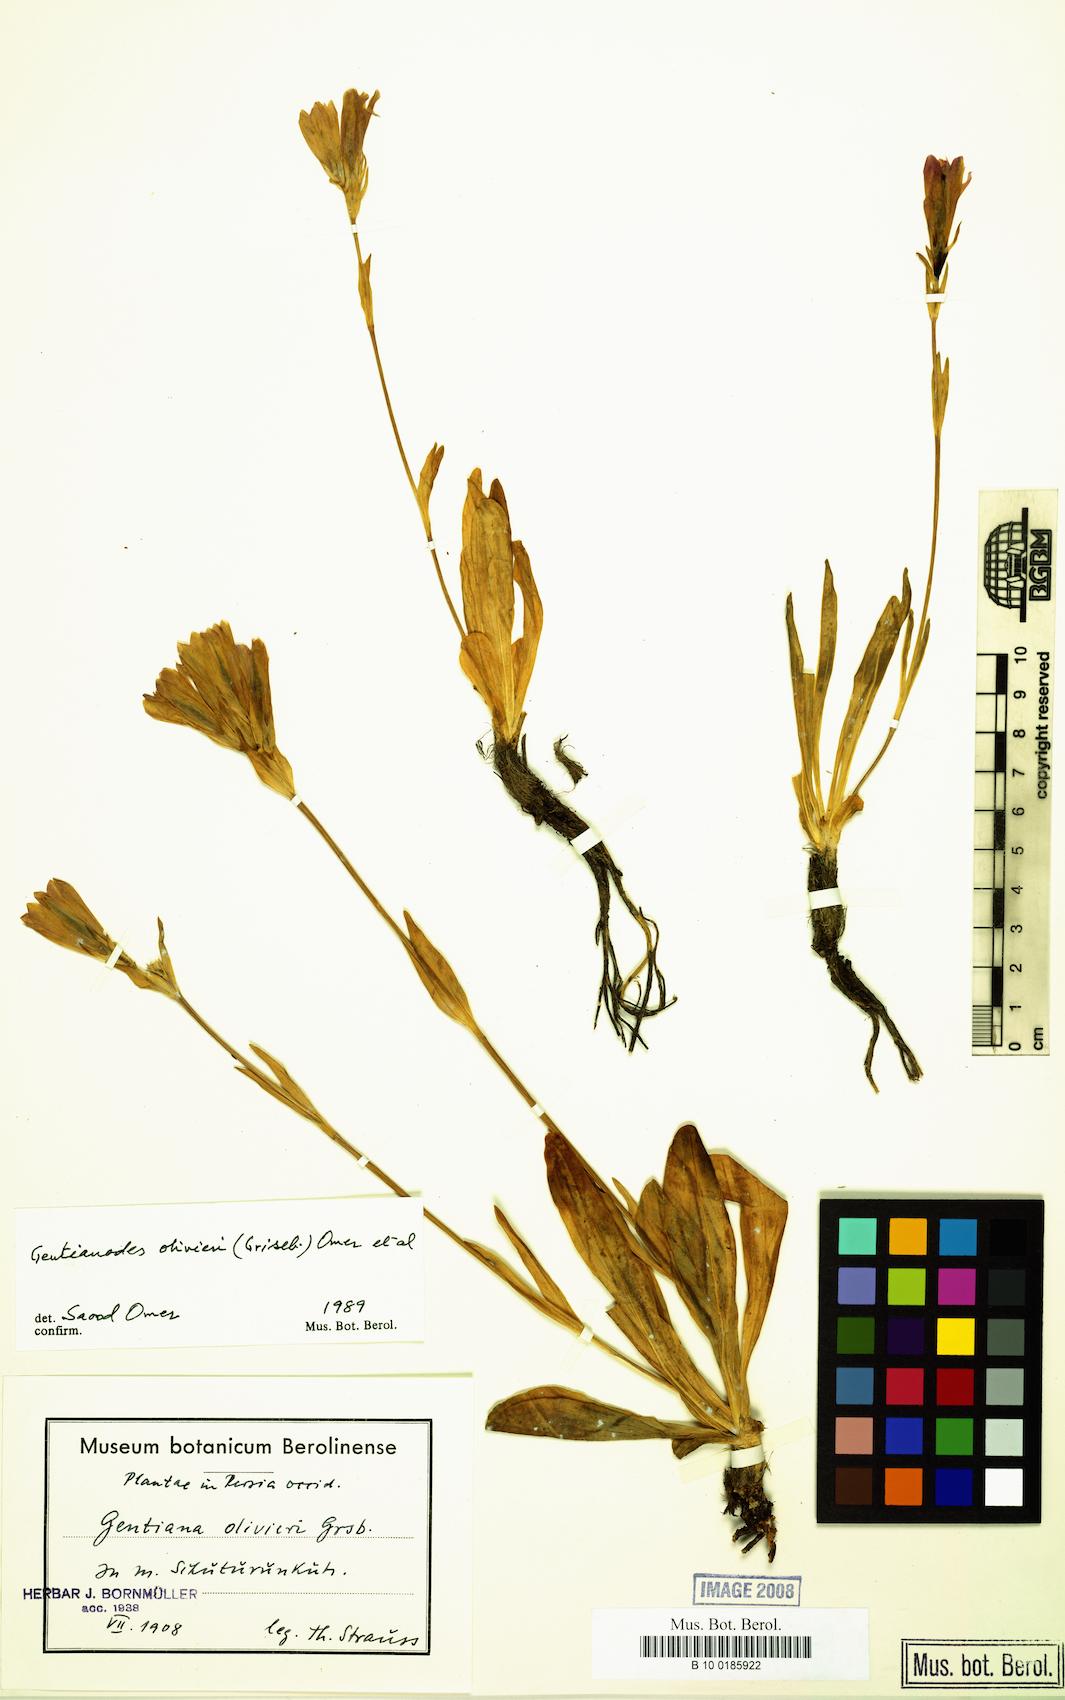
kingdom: Plantae
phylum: Tracheophyta
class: Magnoliopsida
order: Gentianales
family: Gentianaceae
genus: Gentiana
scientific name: Gentiana olivieri
